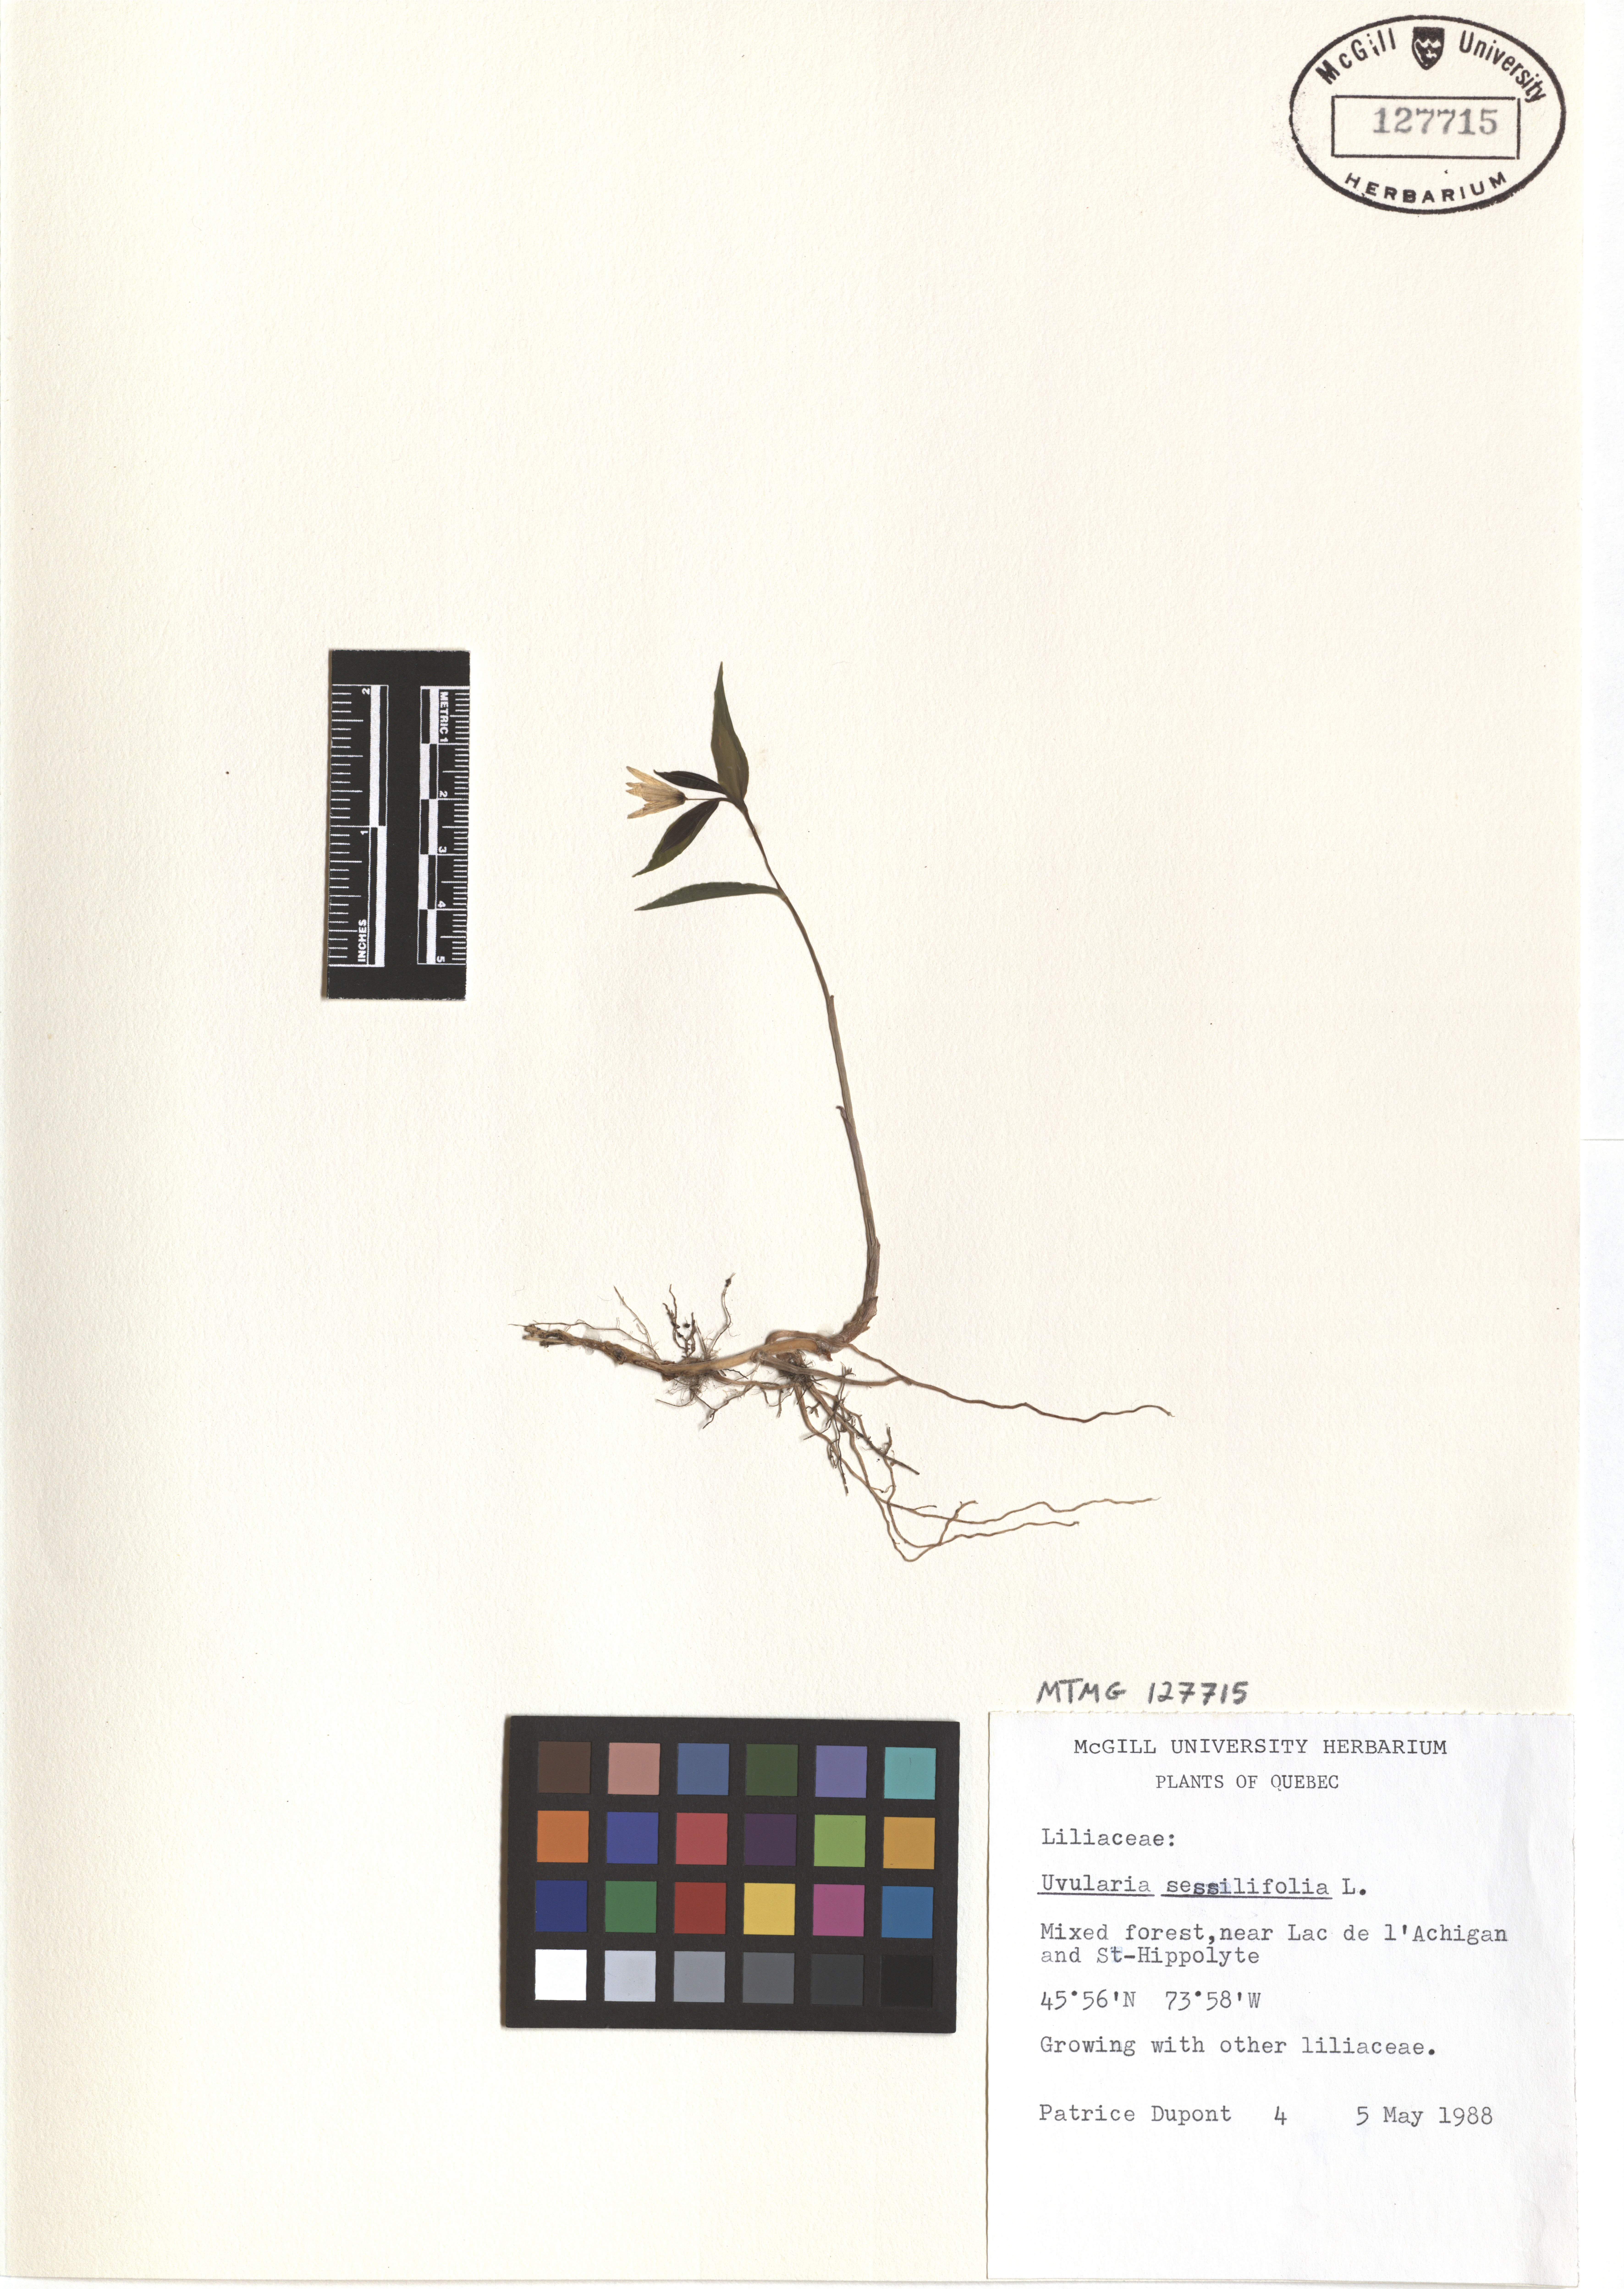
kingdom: Plantae
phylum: Tracheophyta
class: Liliopsida
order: Liliales
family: Colchicaceae
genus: Uvularia
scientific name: Uvularia sessilifolia
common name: Straw-lily
